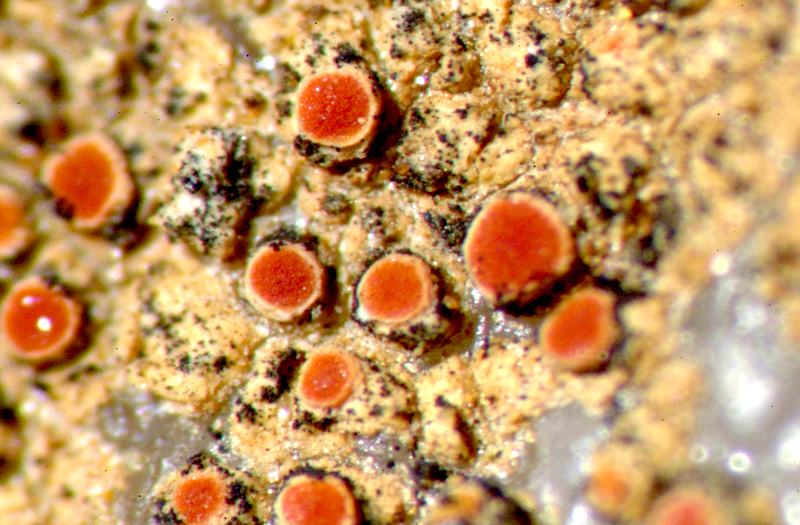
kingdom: Fungi
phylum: Ascomycota
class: Lecanoromycetes
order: Lecideales
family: Lecideaceae
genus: Lecidea
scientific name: Lecidea
